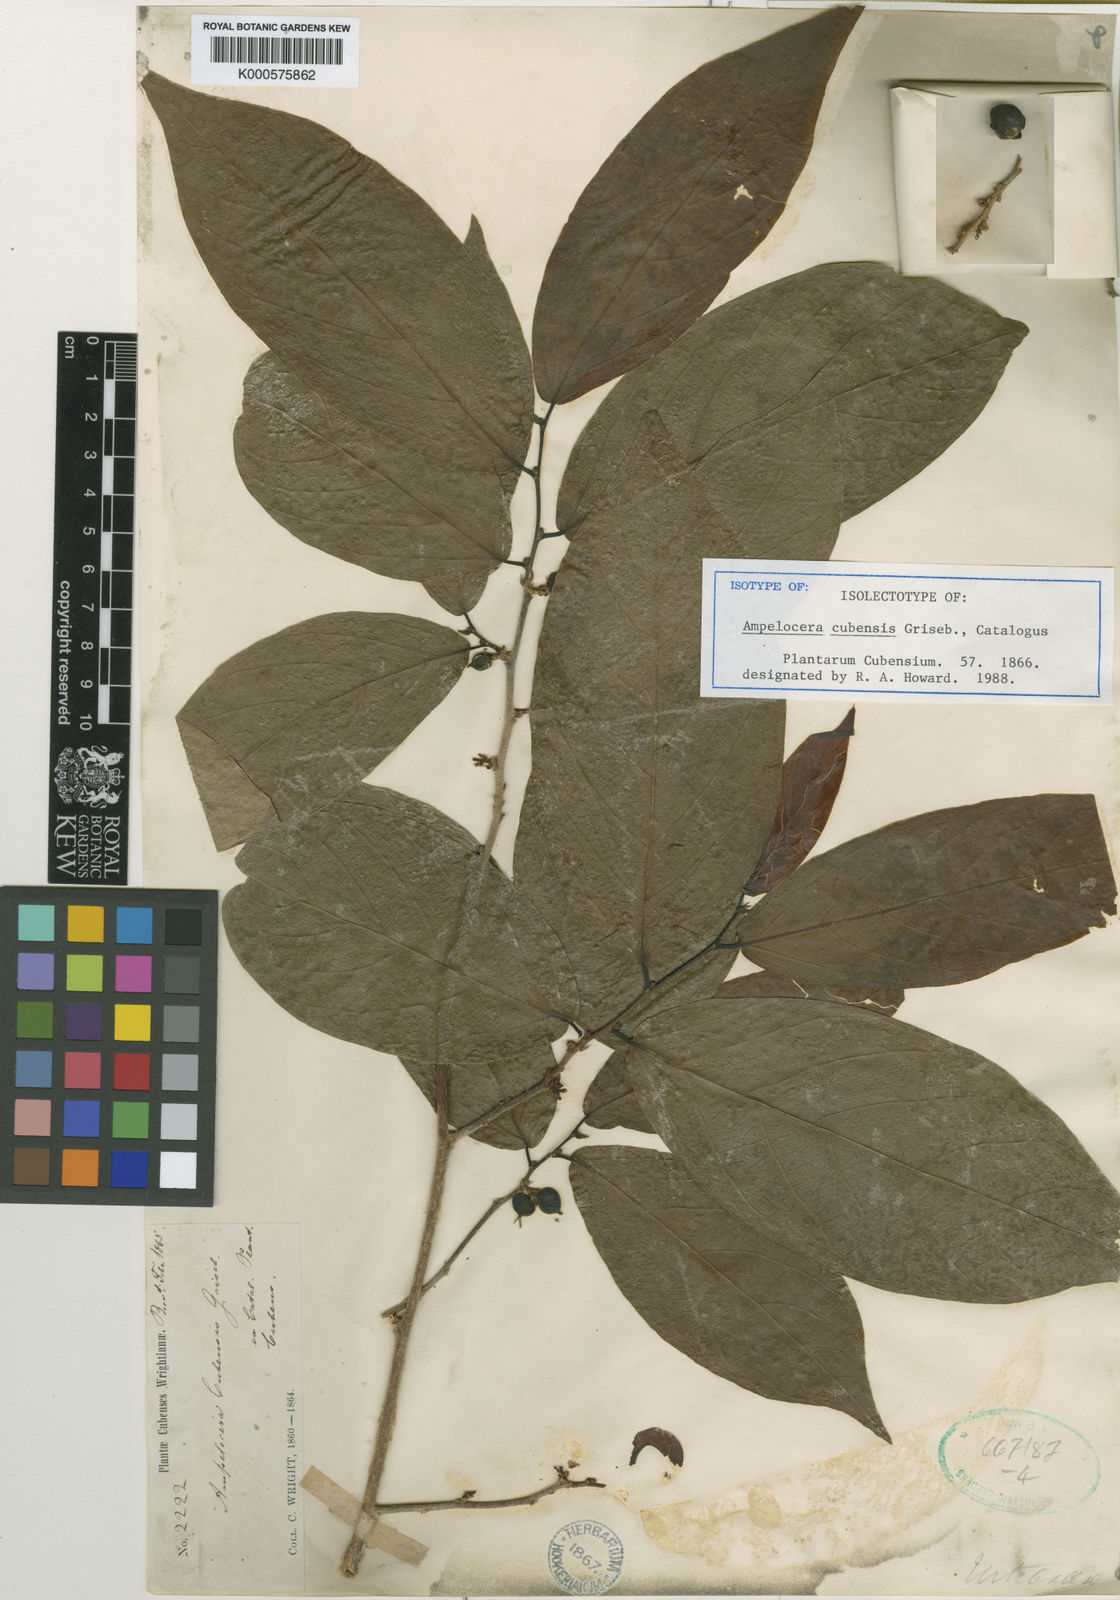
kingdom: Plantae
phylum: Tracheophyta
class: Magnoliopsida
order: Rosales
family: Cannabaceae
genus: Ampelocera
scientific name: Ampelocera cubensis
